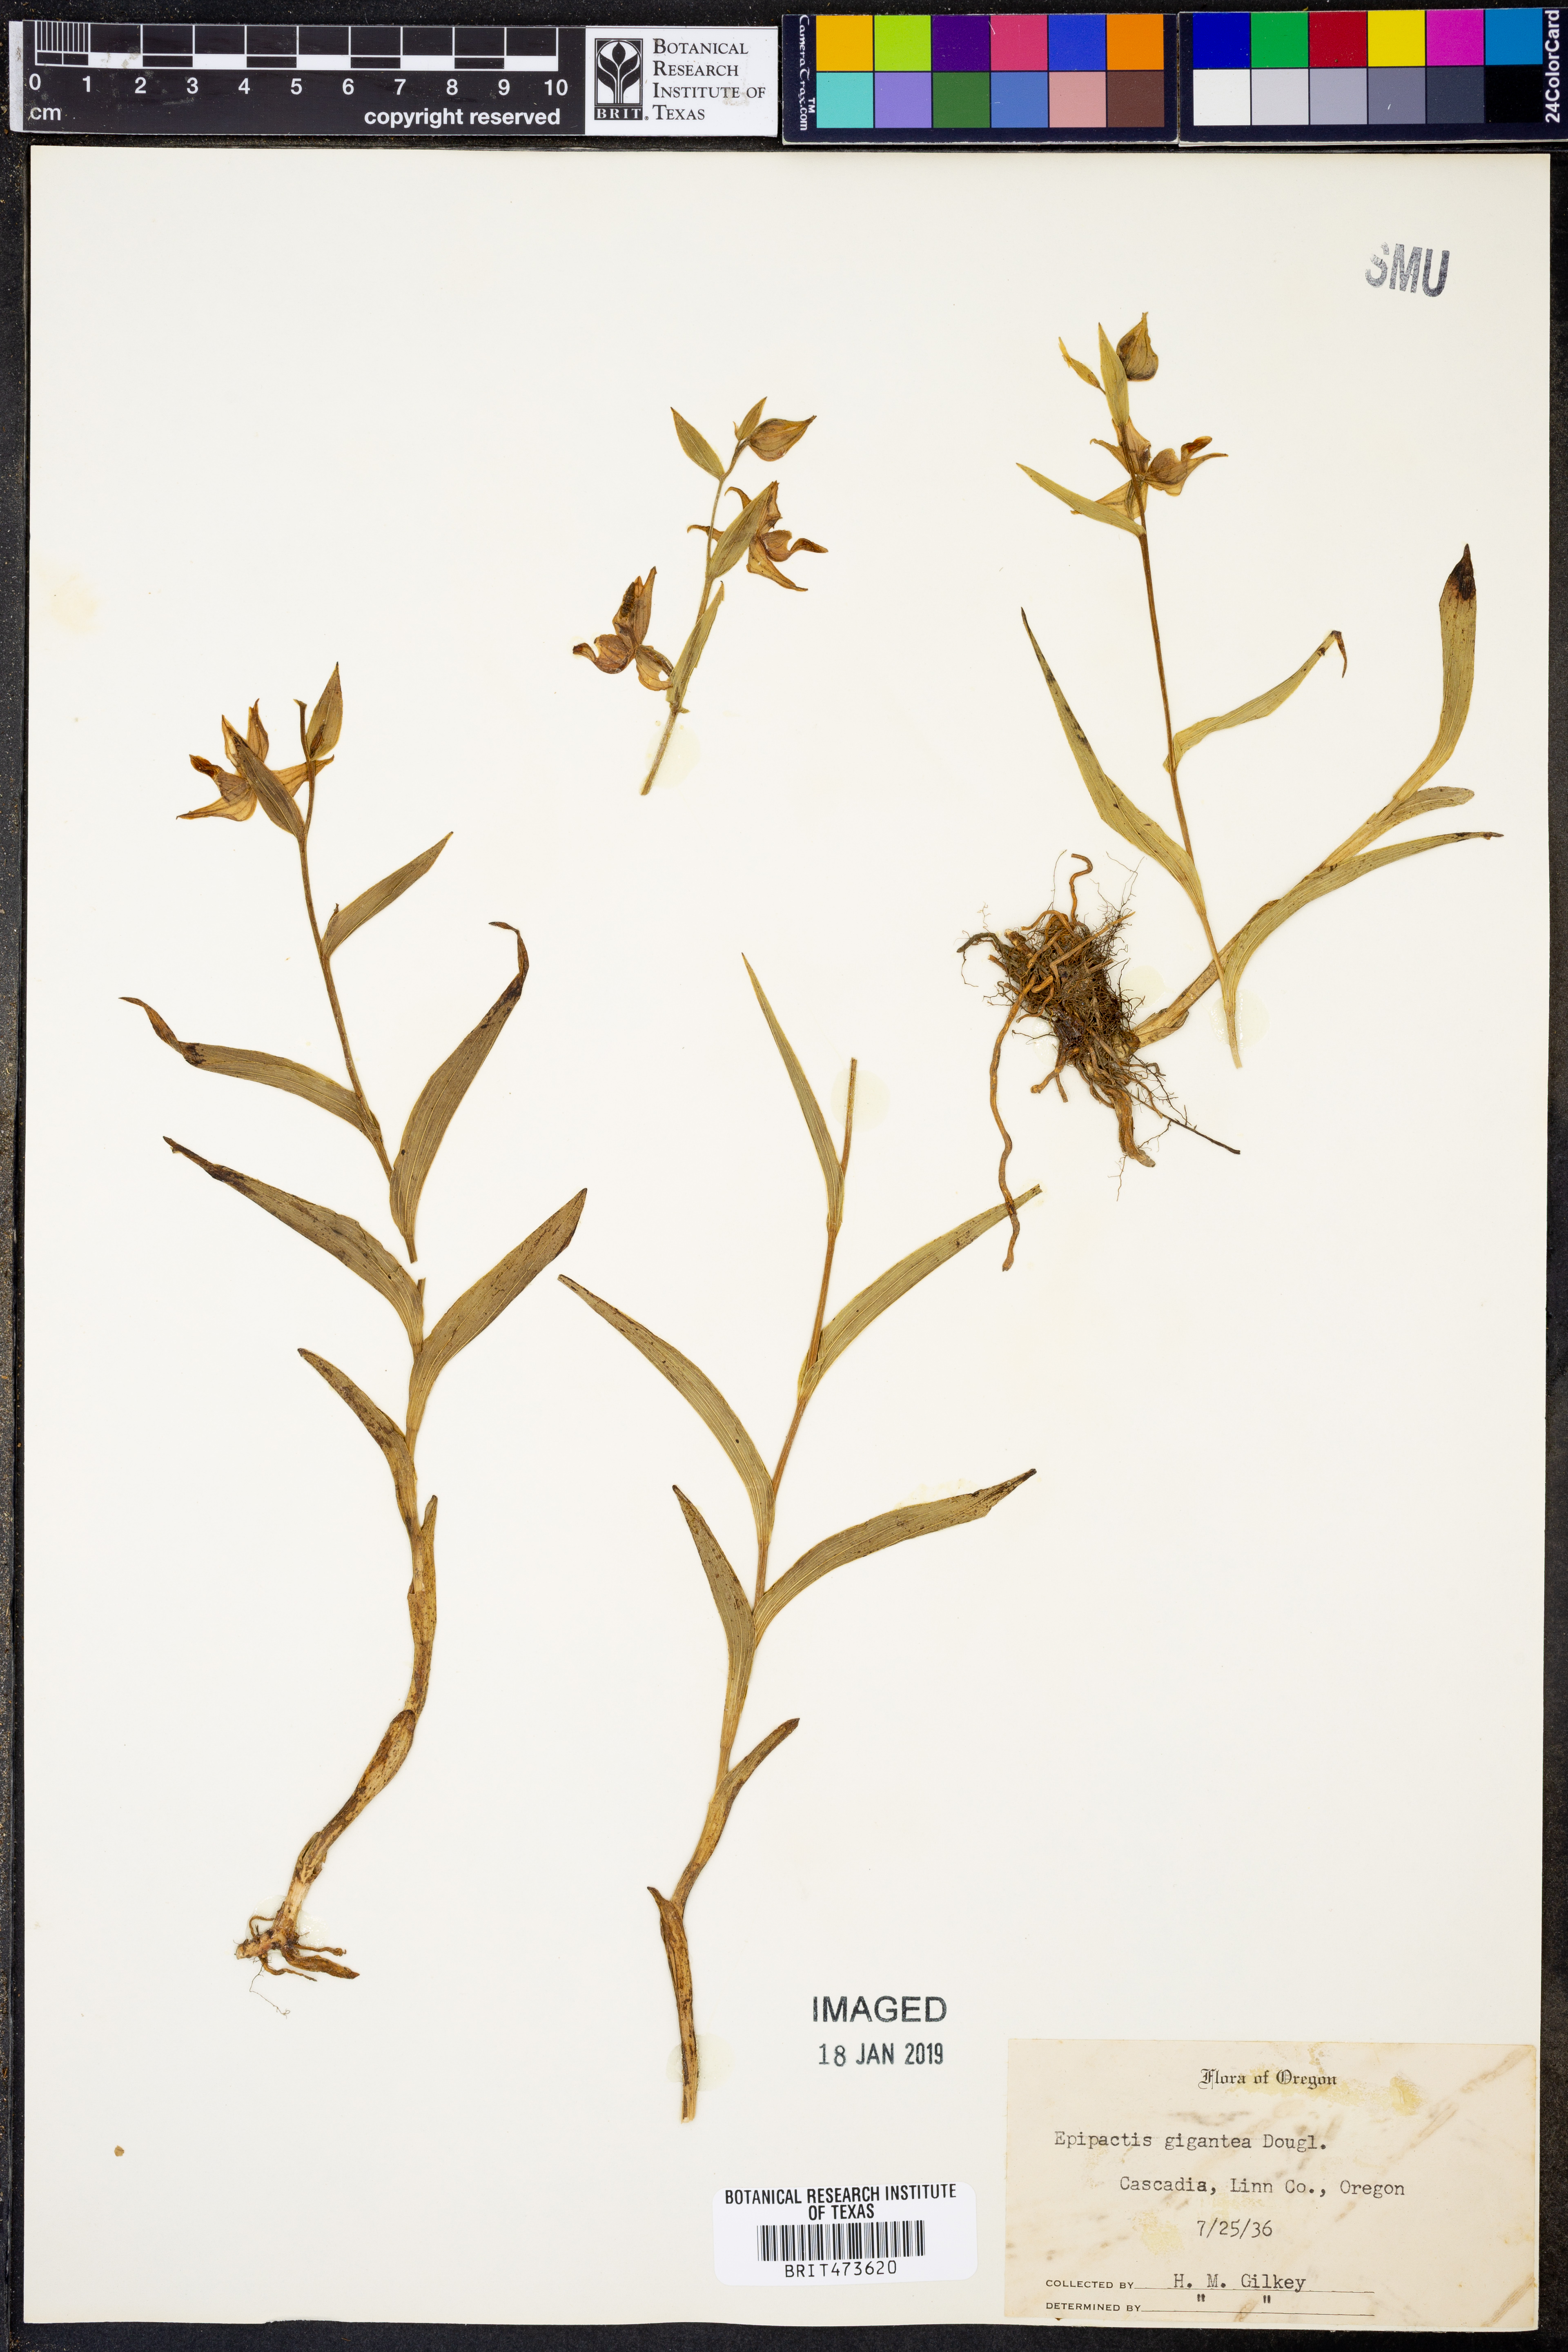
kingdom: Plantae
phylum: Tracheophyta
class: Liliopsida
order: Asparagales
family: Orchidaceae
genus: Epipactis
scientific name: Epipactis gigantea
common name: Chatterbox
